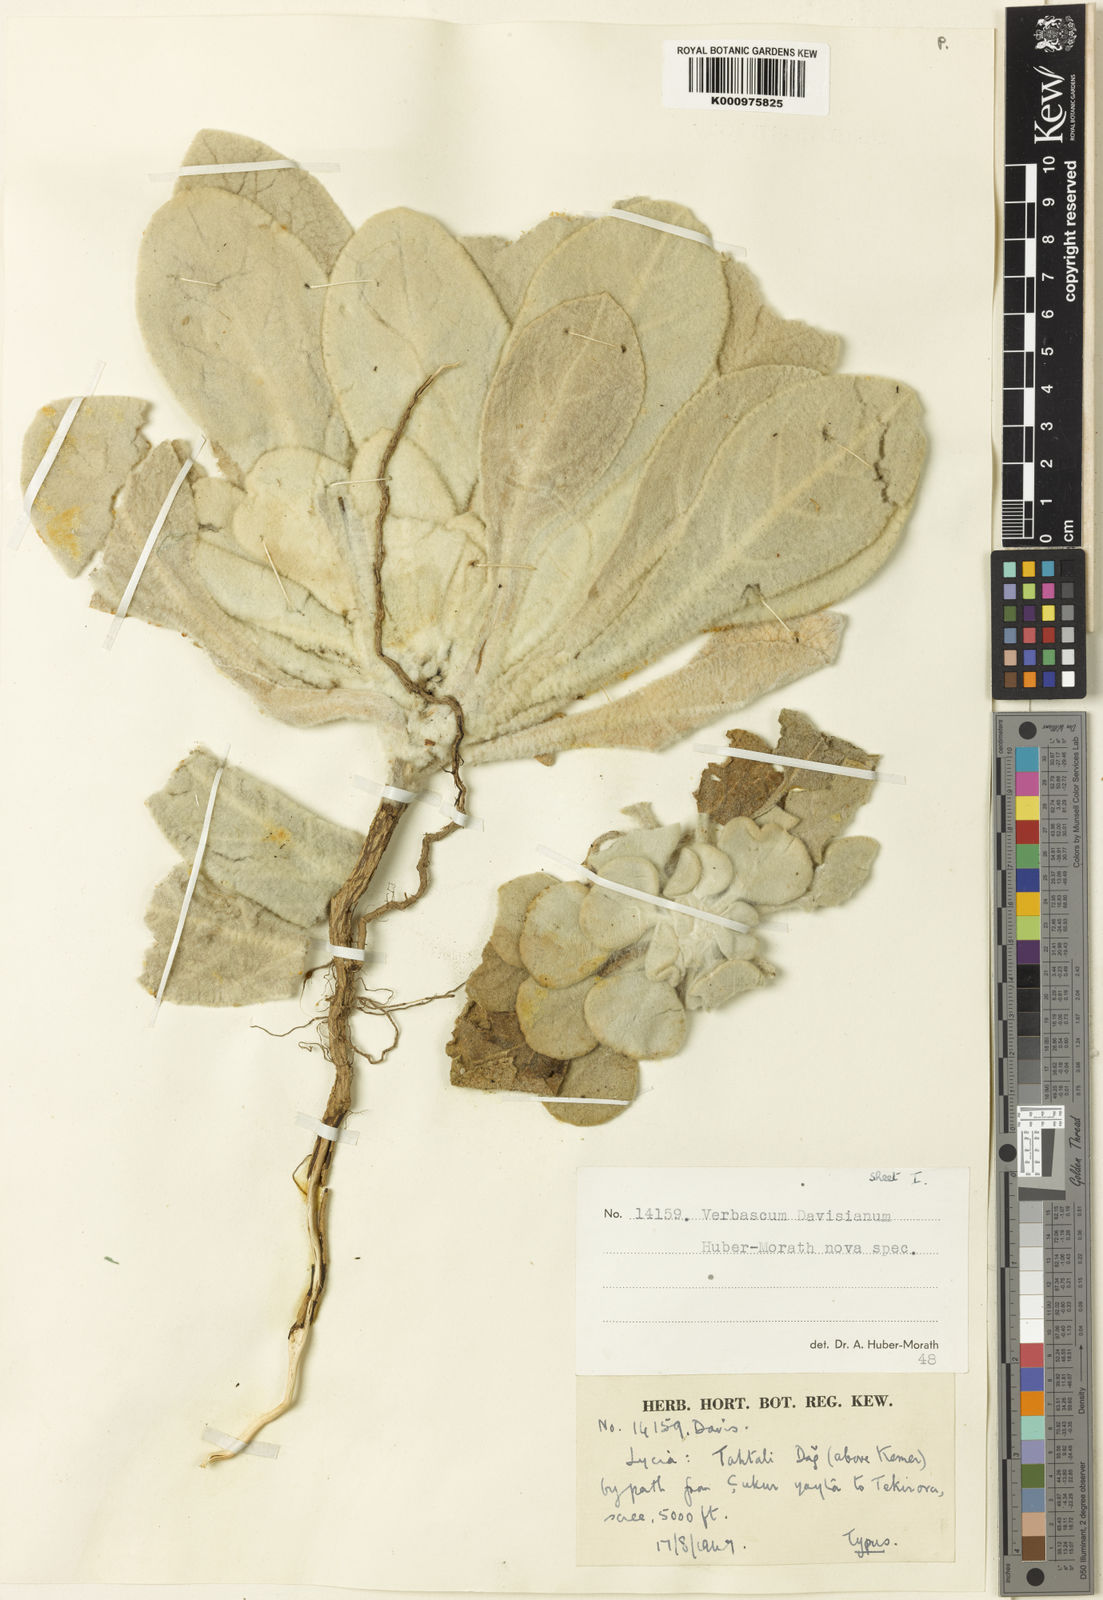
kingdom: Plantae
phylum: Tracheophyta
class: Magnoliopsida
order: Lamiales
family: Scrophulariaceae
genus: Verbascum
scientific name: Verbascum davisianum
